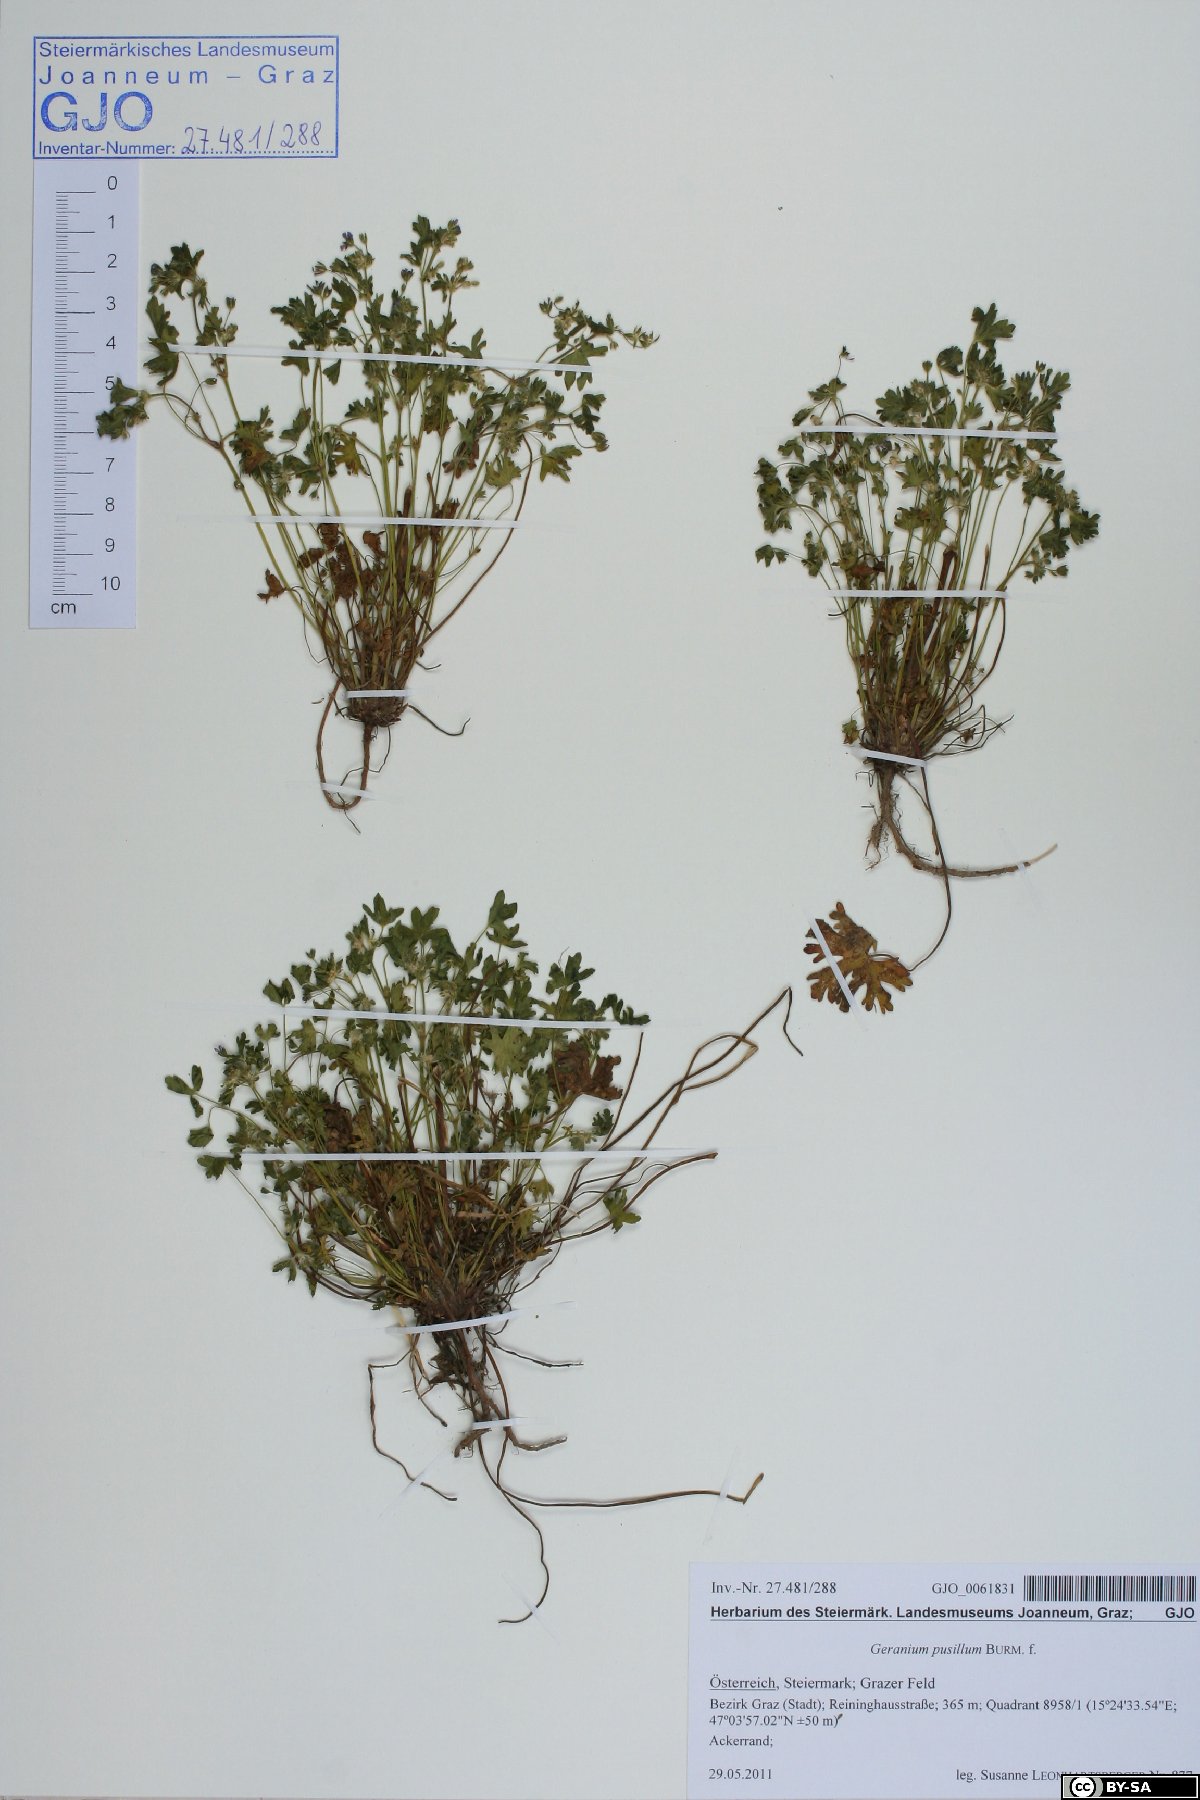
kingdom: Plantae
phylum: Tracheophyta
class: Magnoliopsida
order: Geraniales
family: Geraniaceae
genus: Geranium
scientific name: Geranium pusillum
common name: Small geranium
